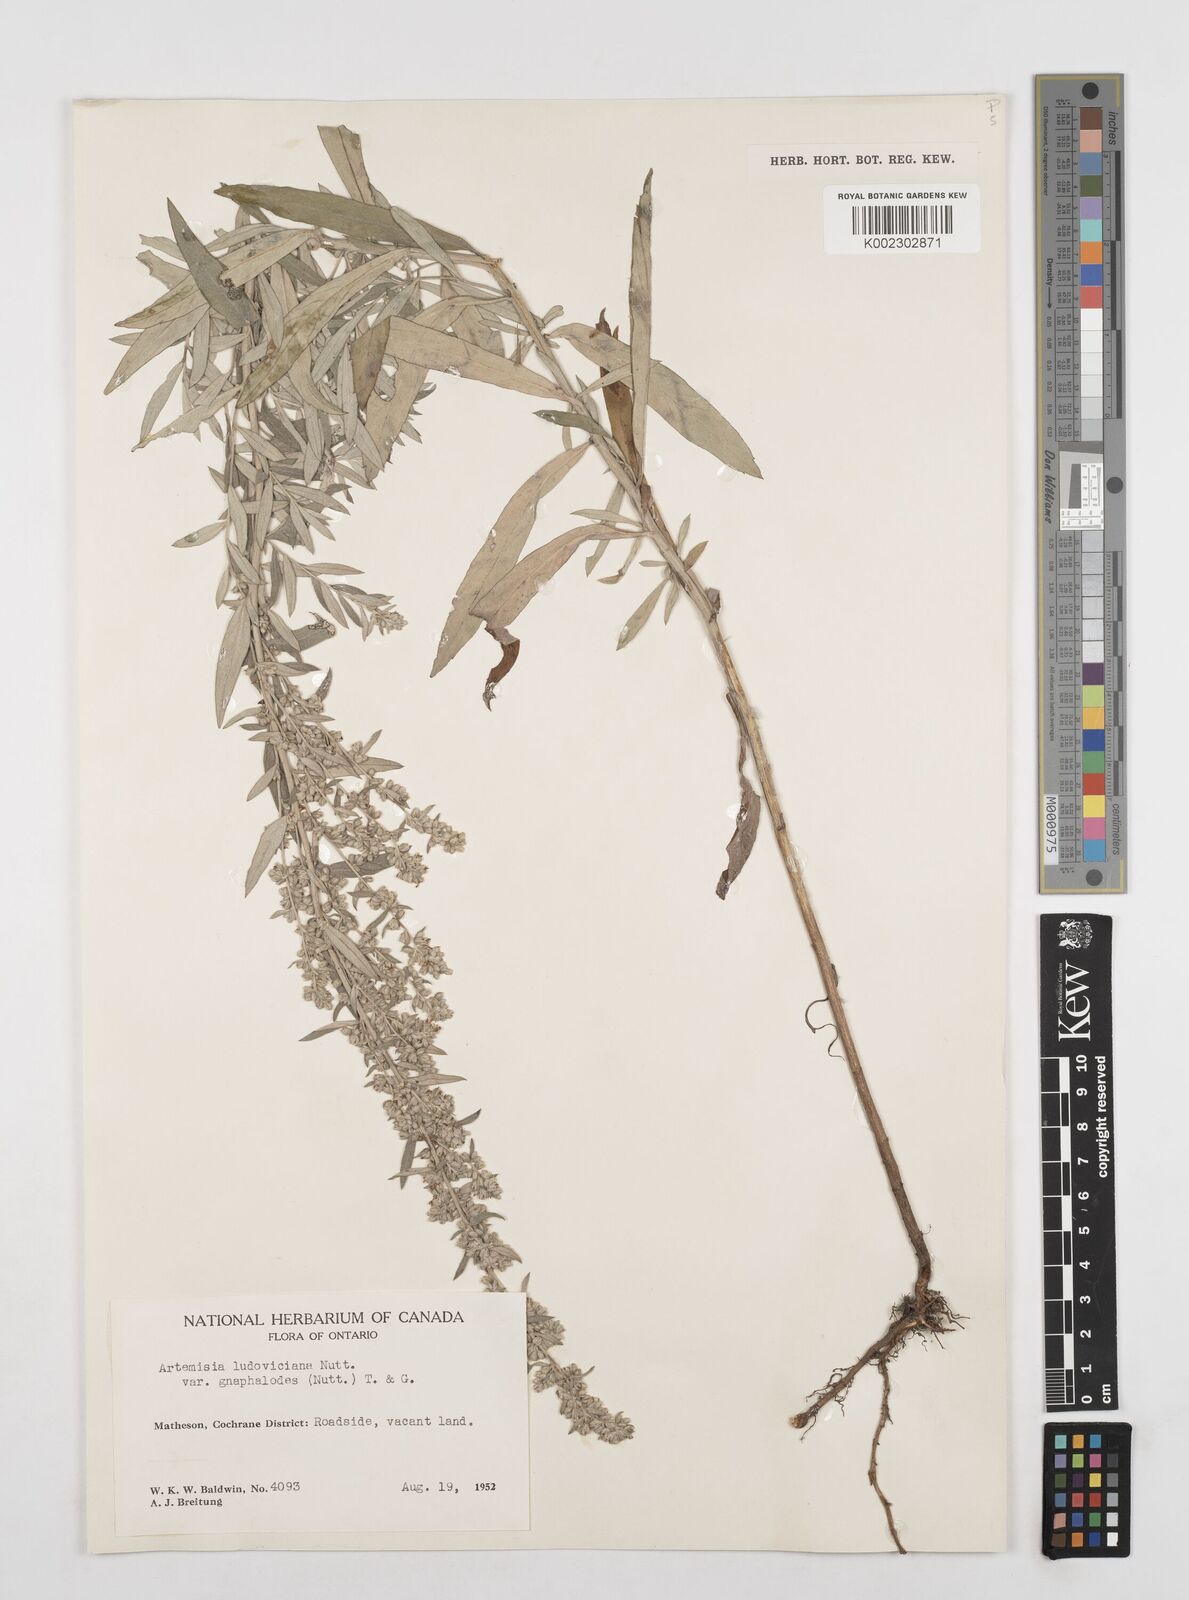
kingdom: Plantae
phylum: Tracheophyta
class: Magnoliopsida
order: Asterales
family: Asteraceae
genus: Artemisia
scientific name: Artemisia ludoviciana
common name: Western mugwort
